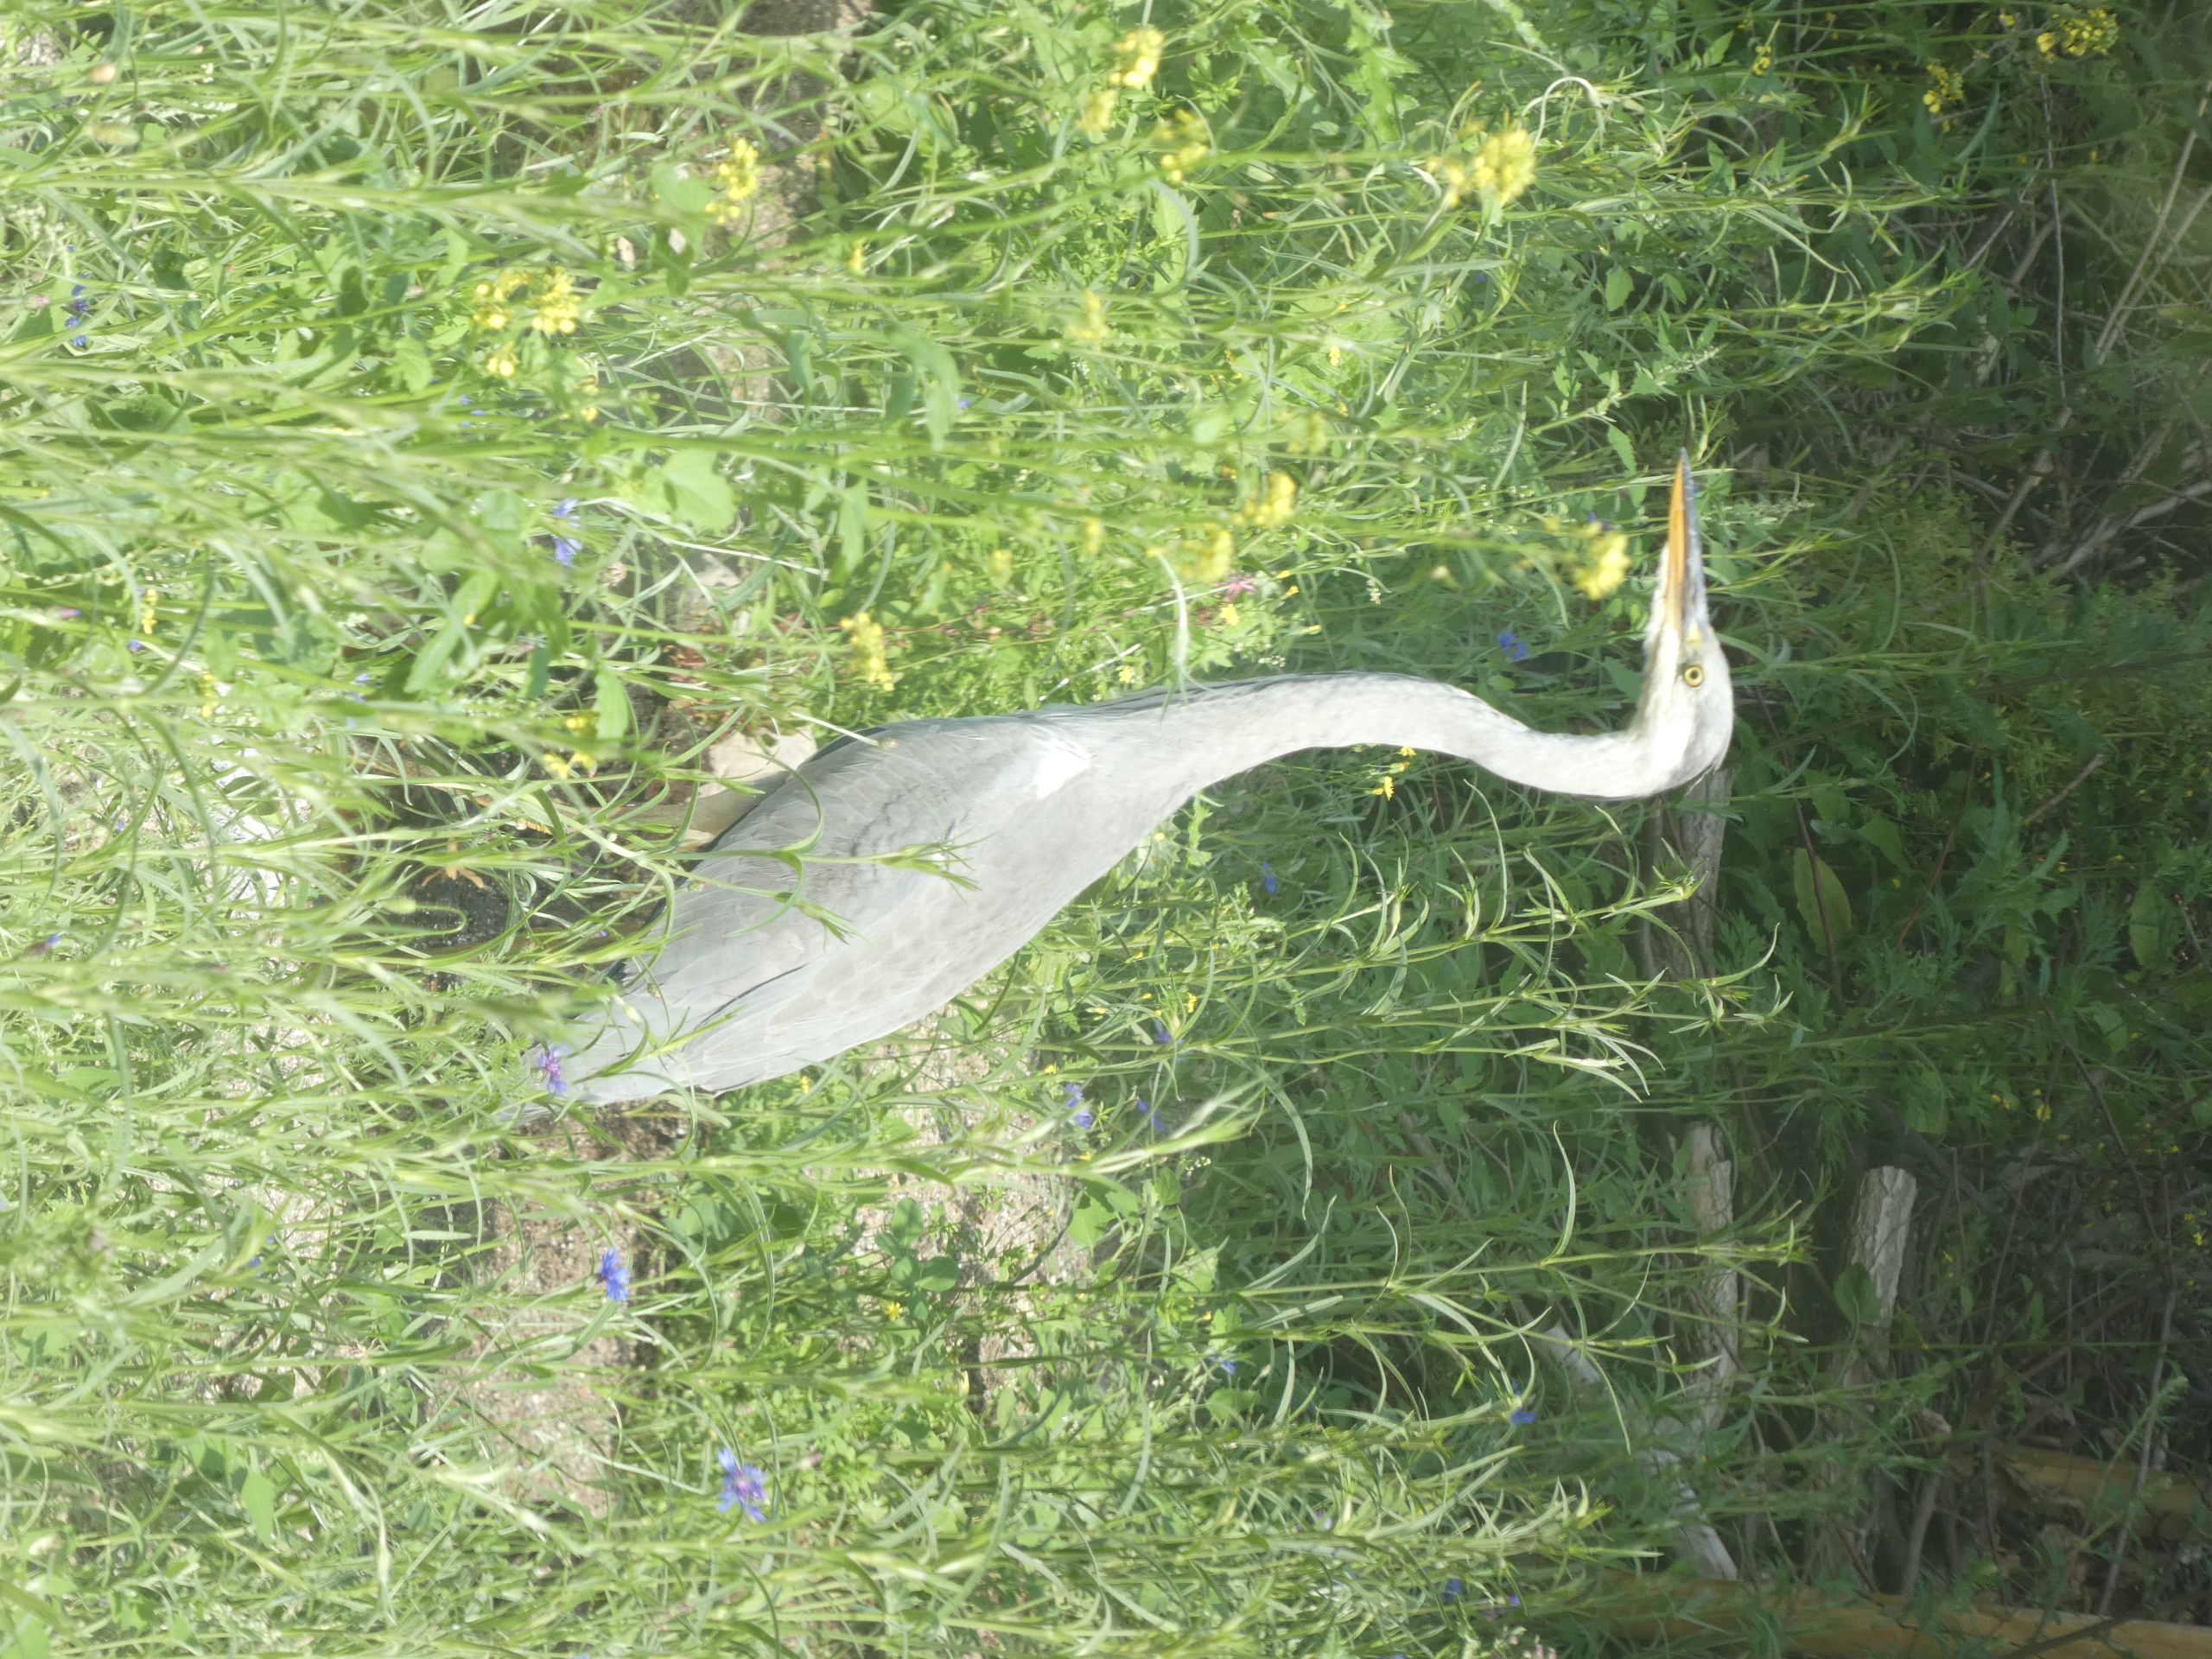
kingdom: Animalia
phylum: Chordata
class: Aves
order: Pelecaniformes
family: Ardeidae
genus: Ardea
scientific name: Ardea cinerea
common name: Fiskehejre
